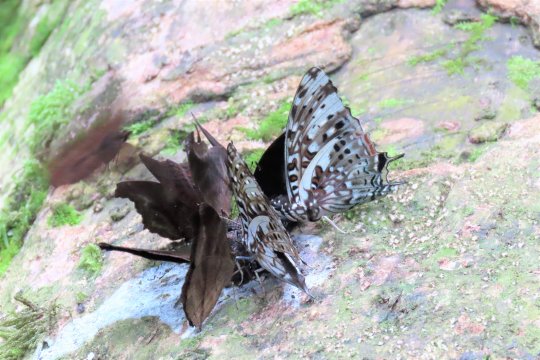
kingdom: Animalia
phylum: Arthropoda
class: Insecta
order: Lepidoptera
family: Nymphalidae
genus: Charaxes
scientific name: Charaxes etesipe
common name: Savannah Charaxes
